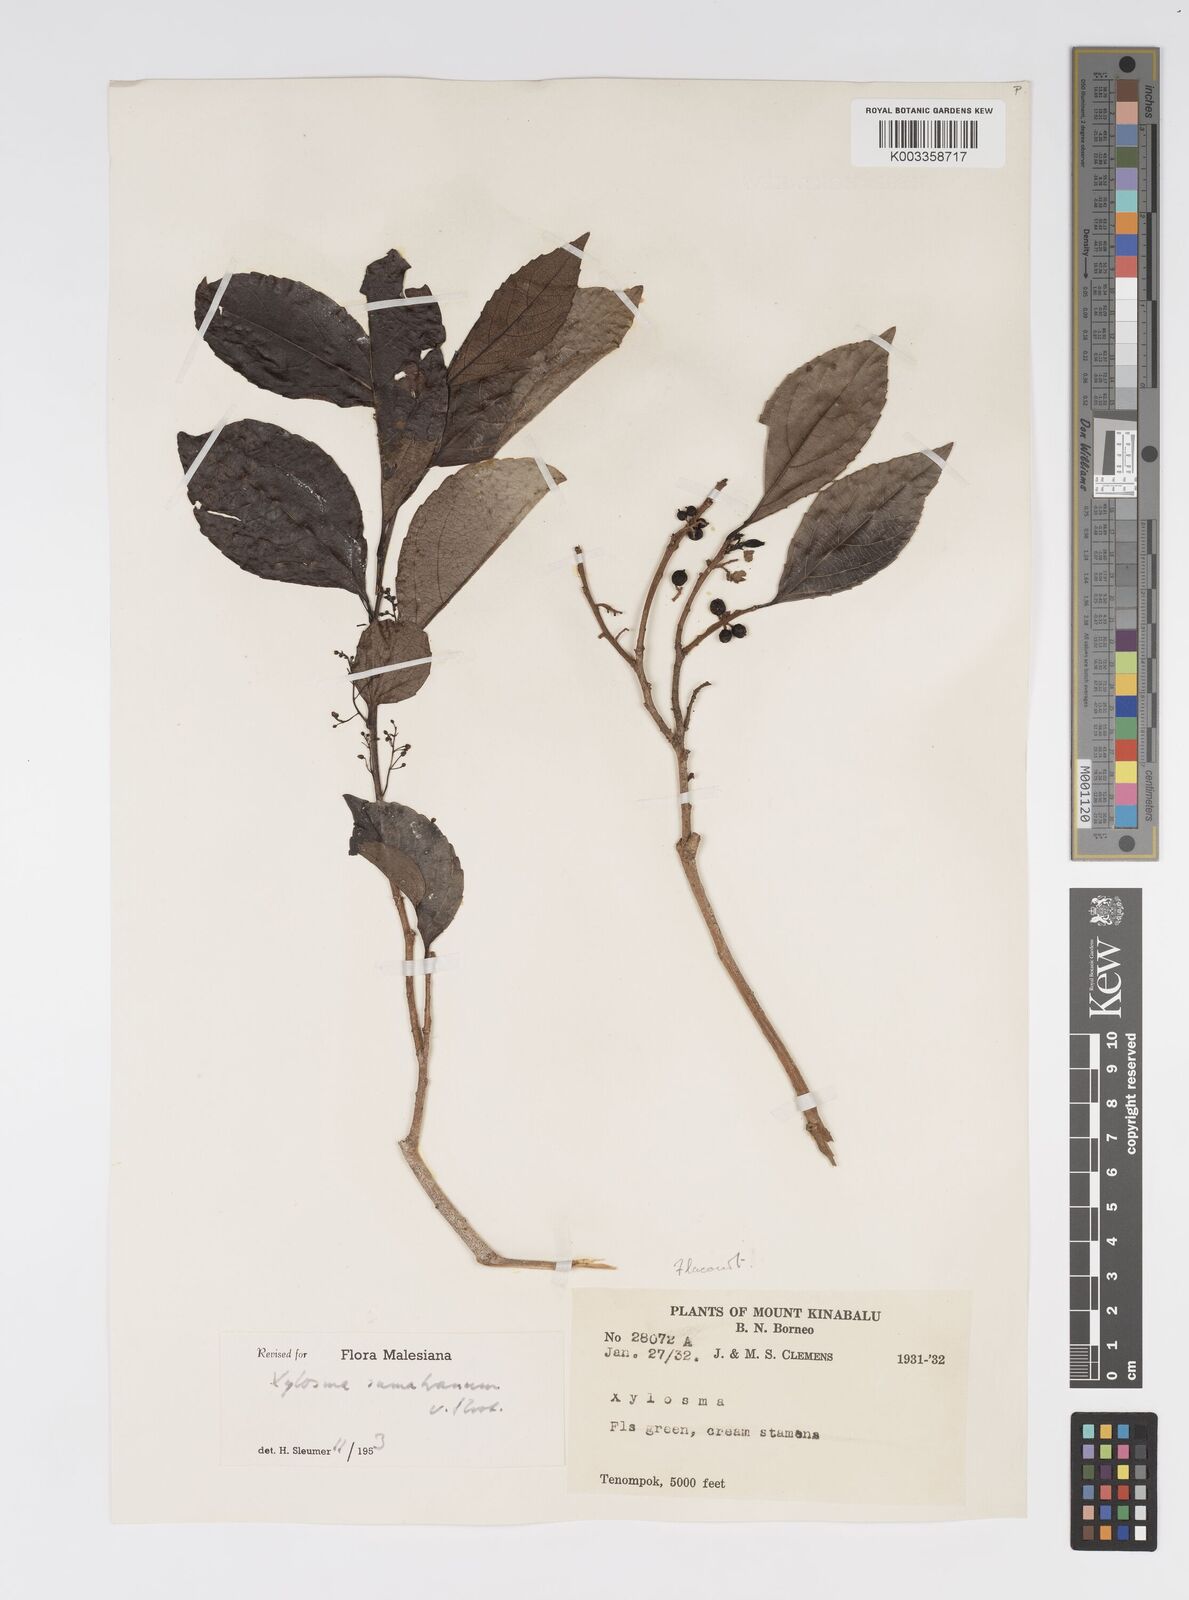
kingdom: Plantae
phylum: Tracheophyta
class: Magnoliopsida
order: Malpighiales
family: Salicaceae
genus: Xylosma
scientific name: Xylosma sumatrana
